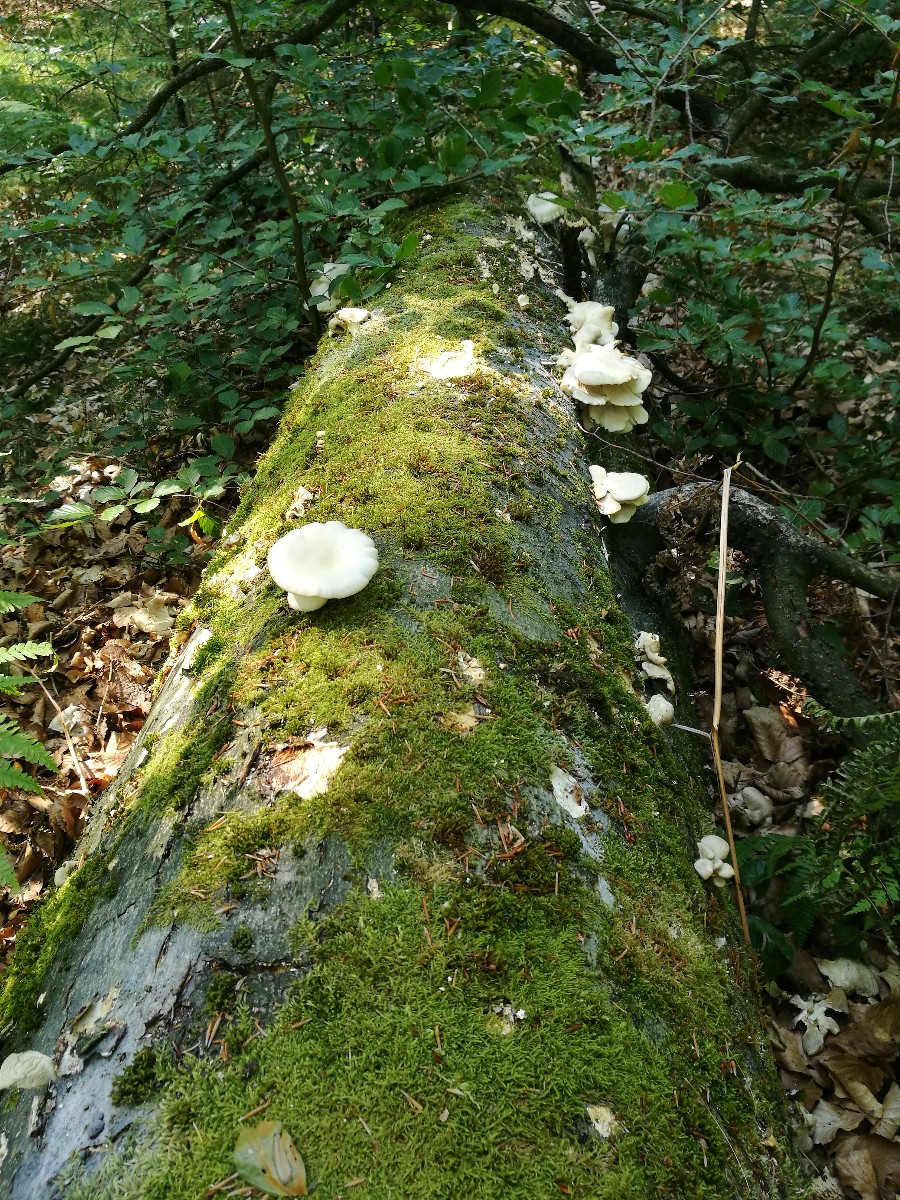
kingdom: Fungi
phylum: Basidiomycota
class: Agaricomycetes
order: Agaricales
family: Pleurotaceae
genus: Pleurotus
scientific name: Pleurotus pulmonarius
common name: sommer-østershat
